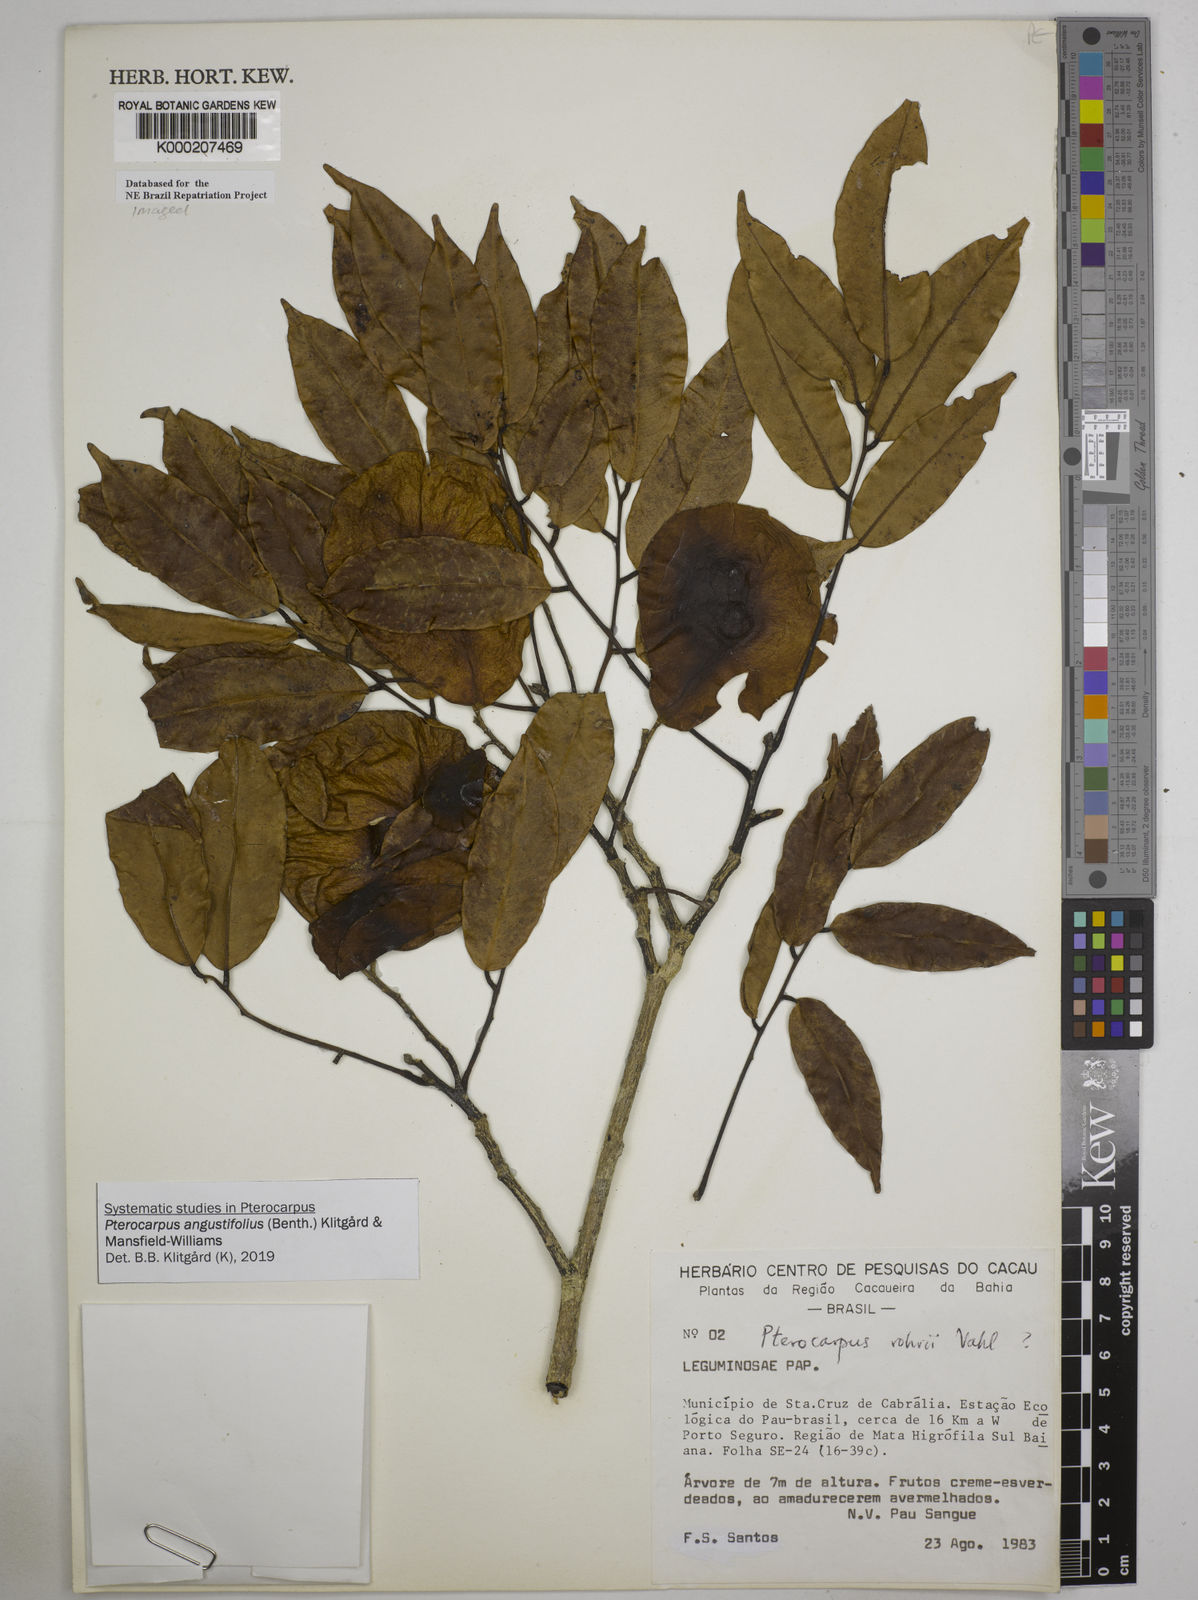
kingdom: Plantae
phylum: Tracheophyta
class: Magnoliopsida
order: Fabales
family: Fabaceae
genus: Pterocarpus
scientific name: Pterocarpus
